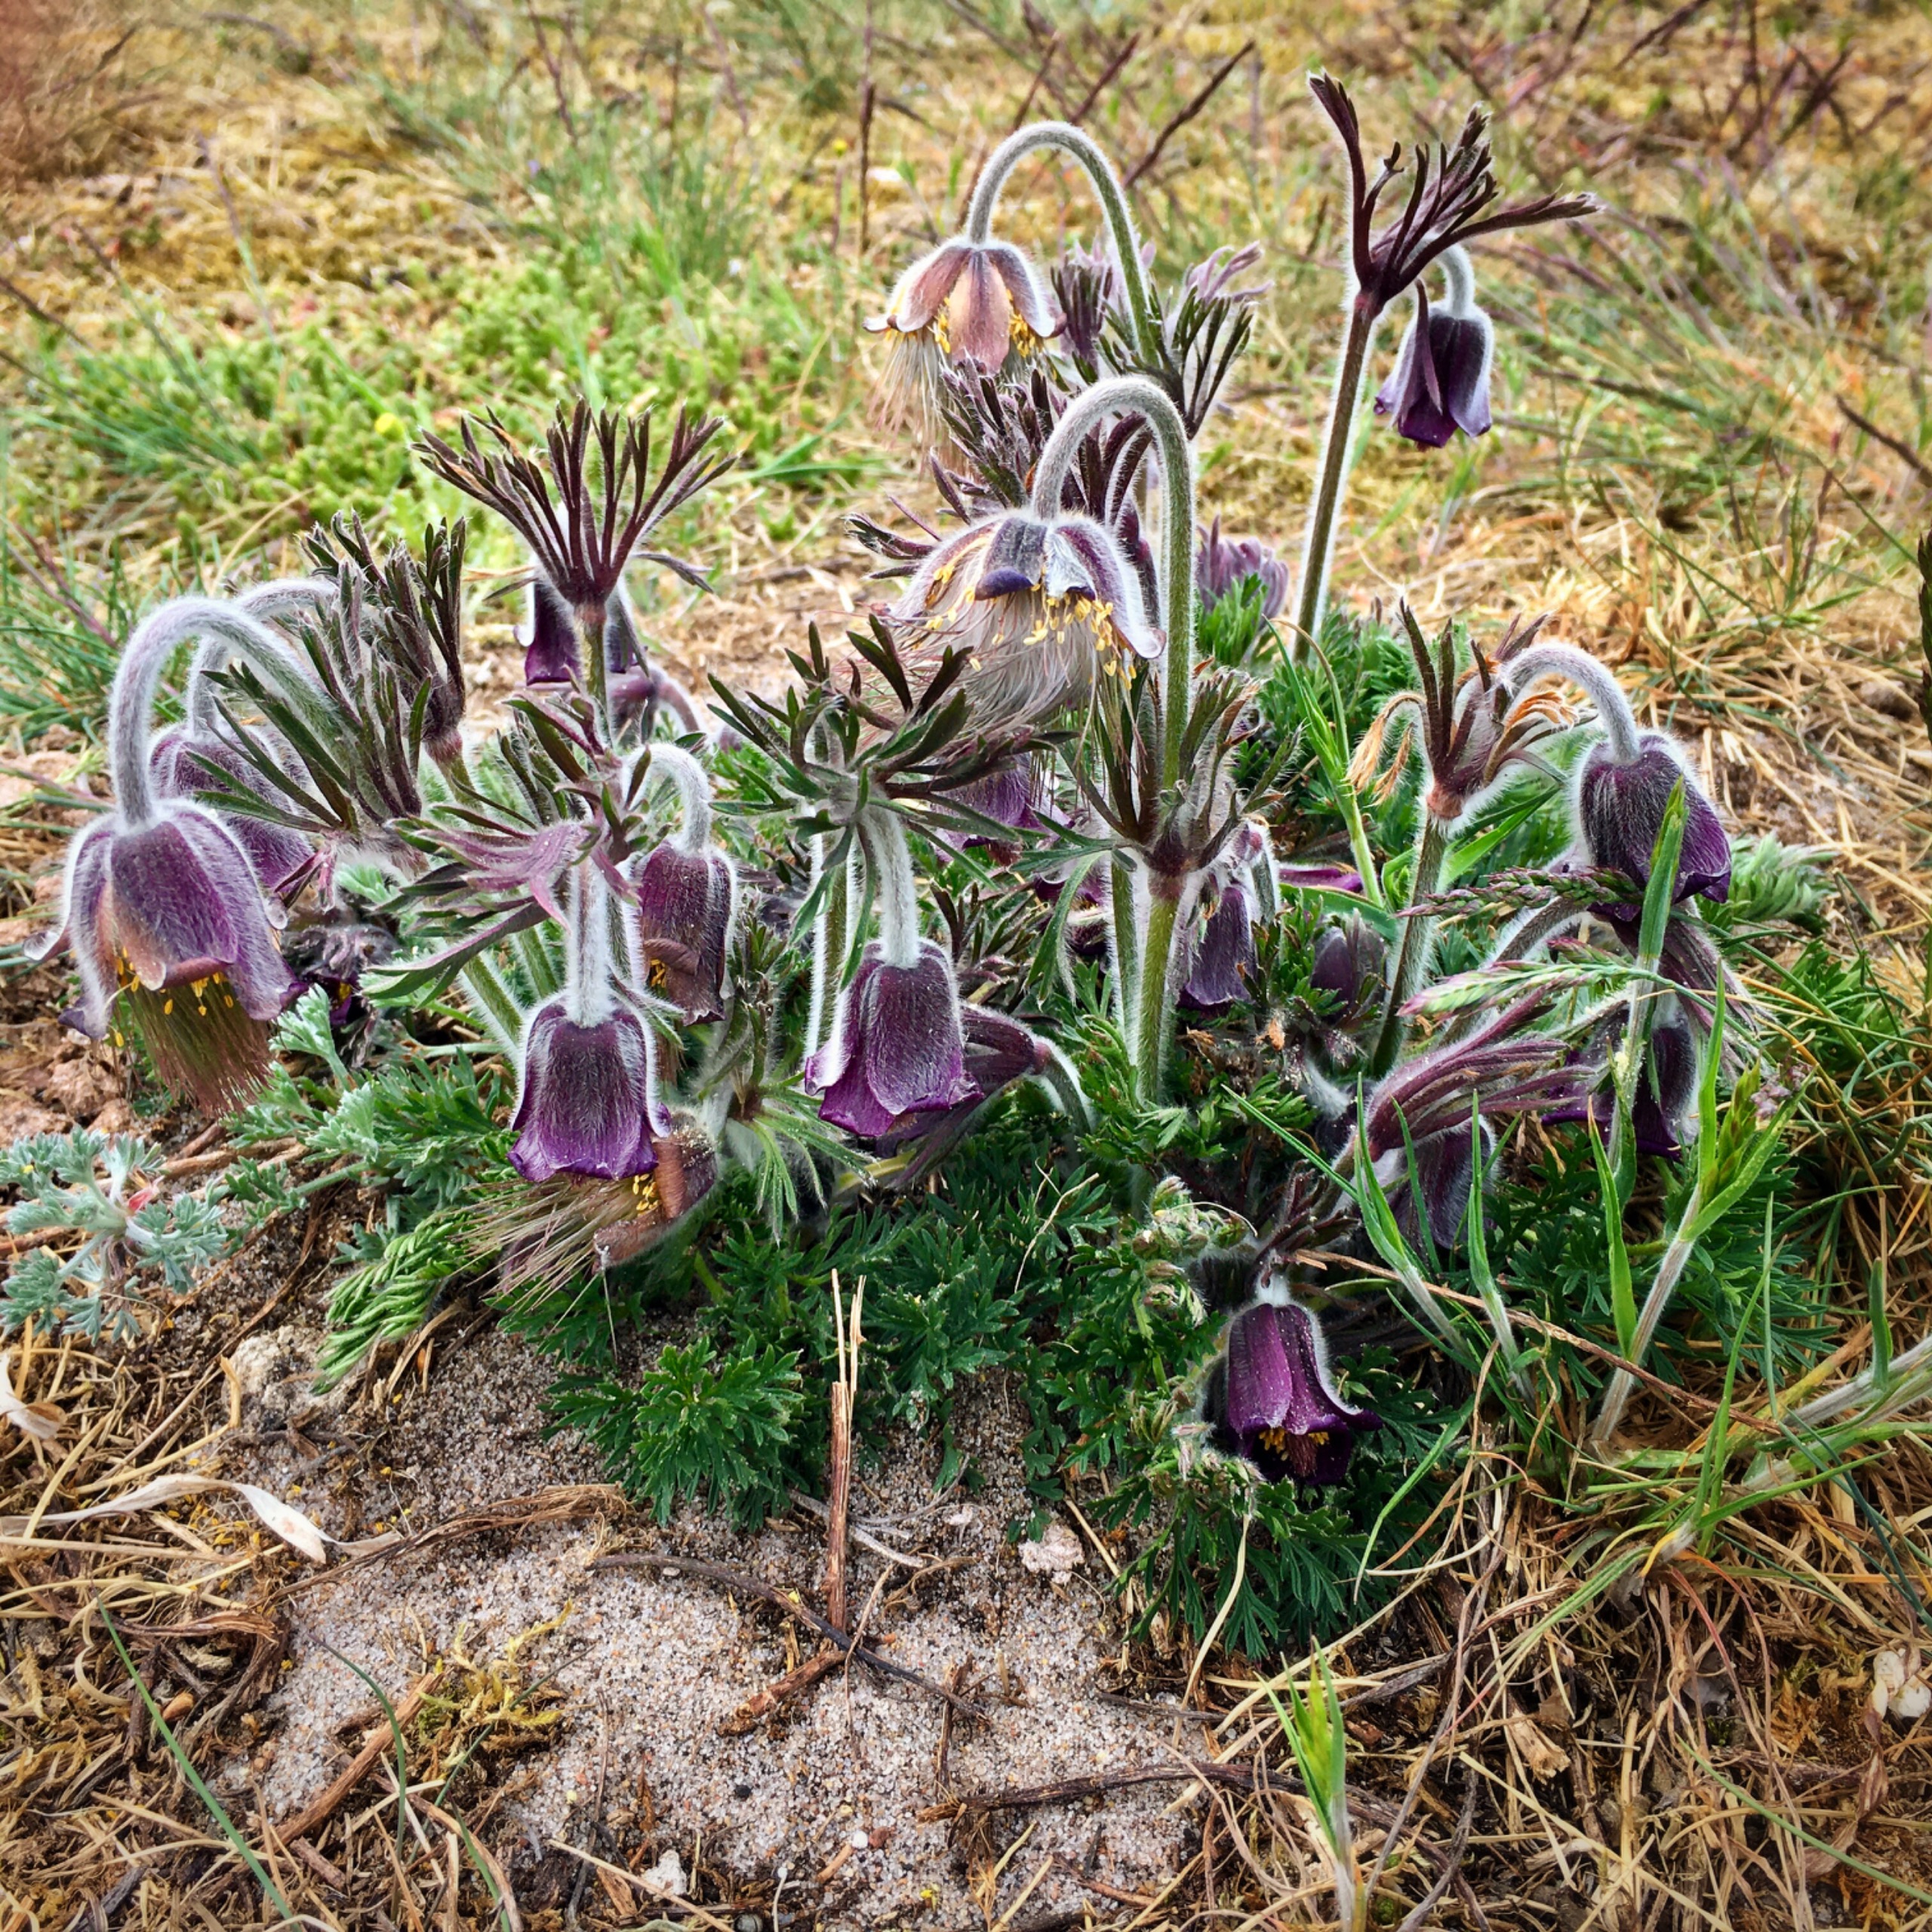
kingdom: Plantae
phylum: Tracheophyta
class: Magnoliopsida
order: Ranunculales
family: Ranunculaceae
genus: Pulsatilla
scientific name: Pulsatilla pratensis
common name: Nikkende kobjælde
